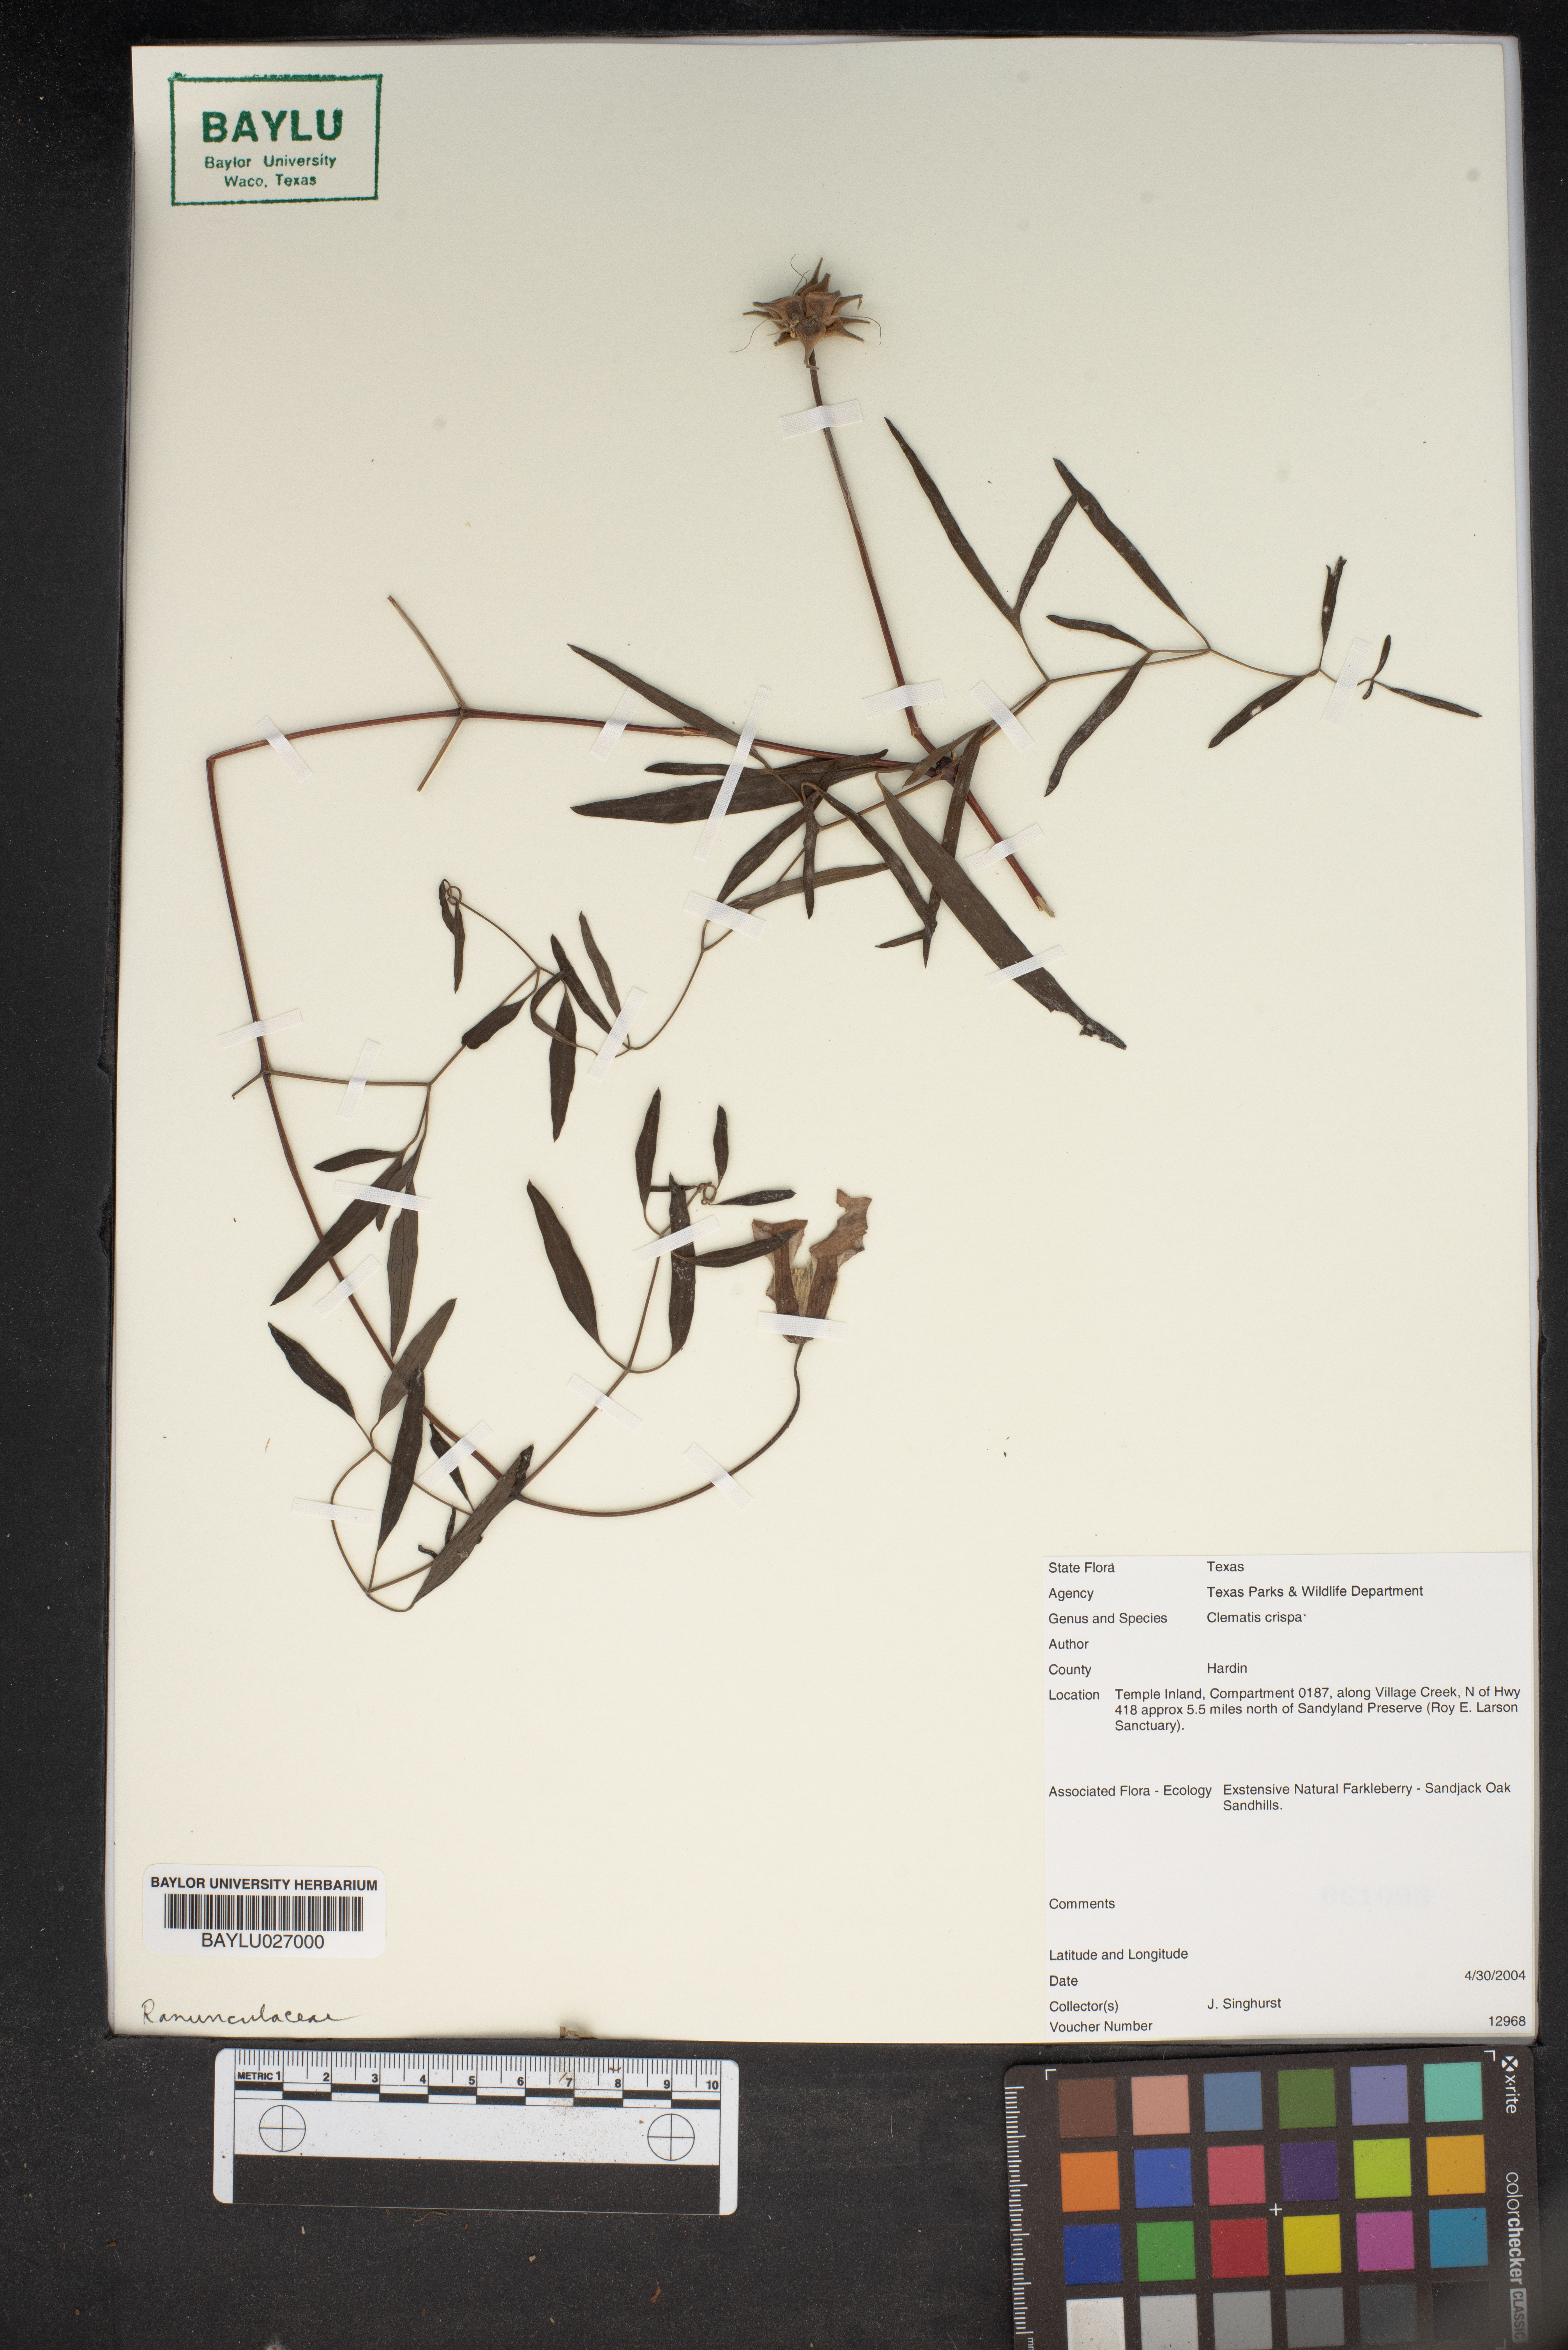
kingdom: Plantae
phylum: Tracheophyta
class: Magnoliopsida
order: Ranunculales
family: Ranunculaceae
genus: Clematis
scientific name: Clematis crispa
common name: Curly clematis
